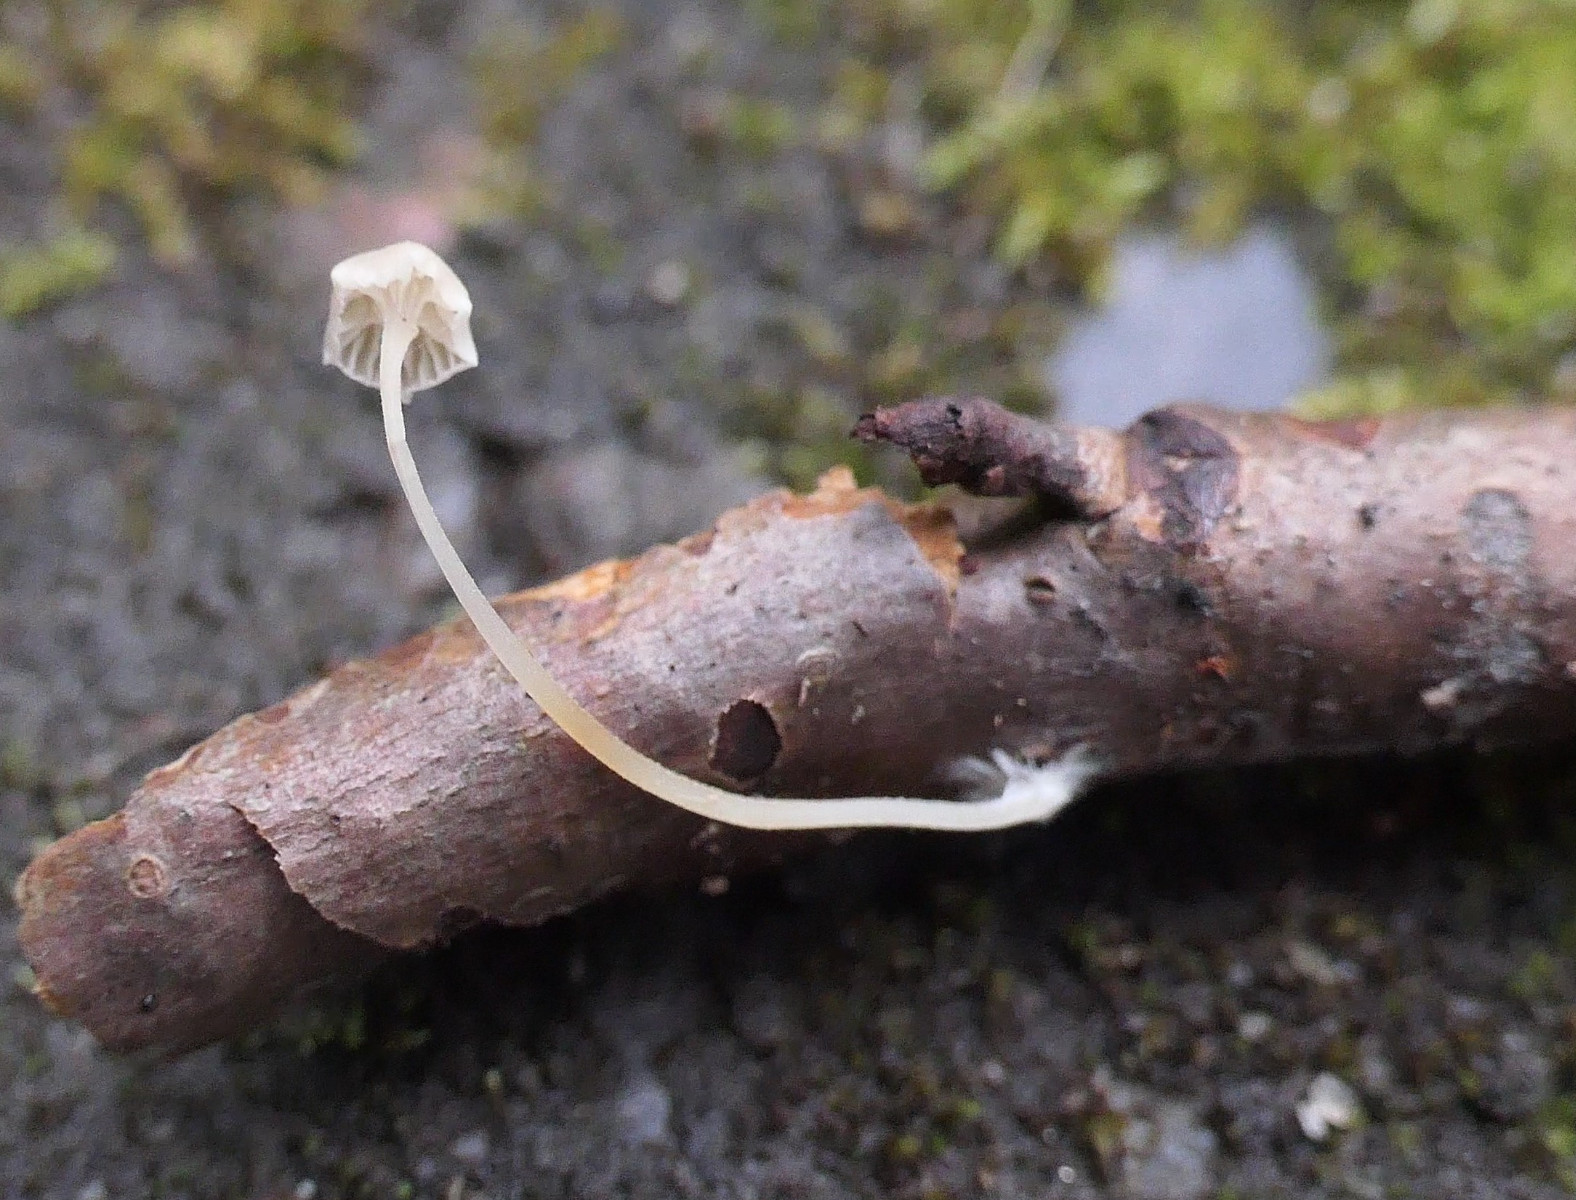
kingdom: Fungi
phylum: Basidiomycota
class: Agaricomycetes
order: Agaricales
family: Porotheleaceae
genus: Phloeomana
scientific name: Phloeomana speirea
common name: kvist-huesvamp
